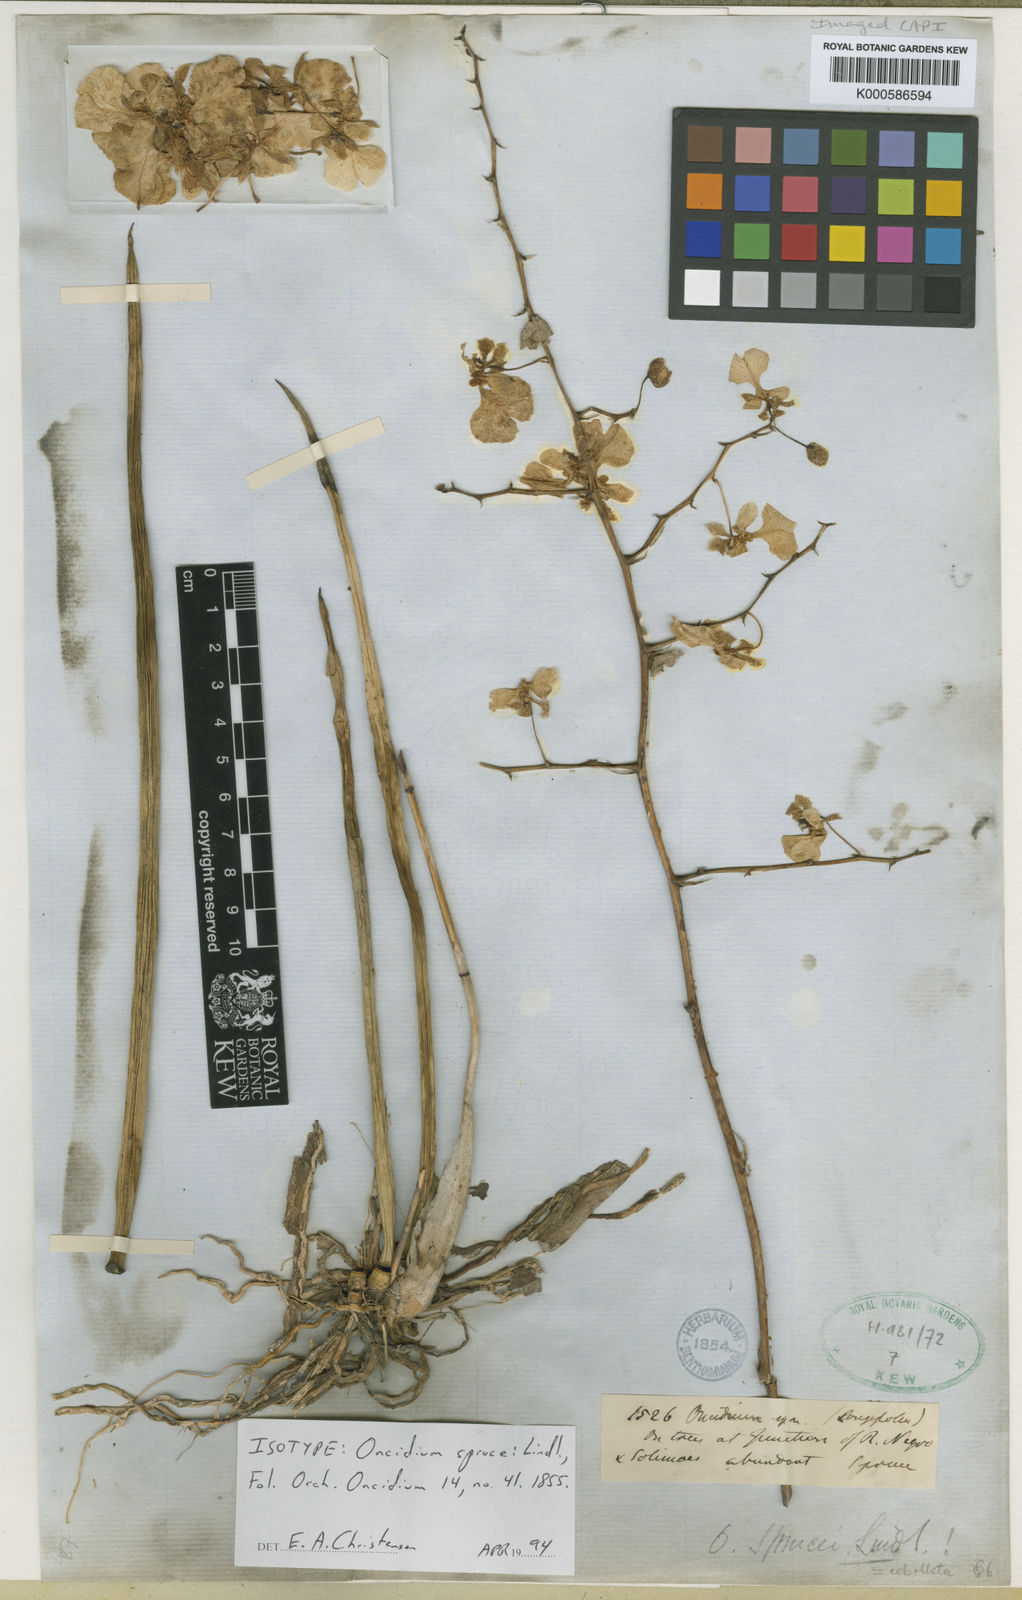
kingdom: Plantae
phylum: Tracheophyta
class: Liliopsida
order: Asparagales
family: Orchidaceae
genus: Trichocentrum
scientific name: Trichocentrum sprucei
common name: Rat-tail orchid
